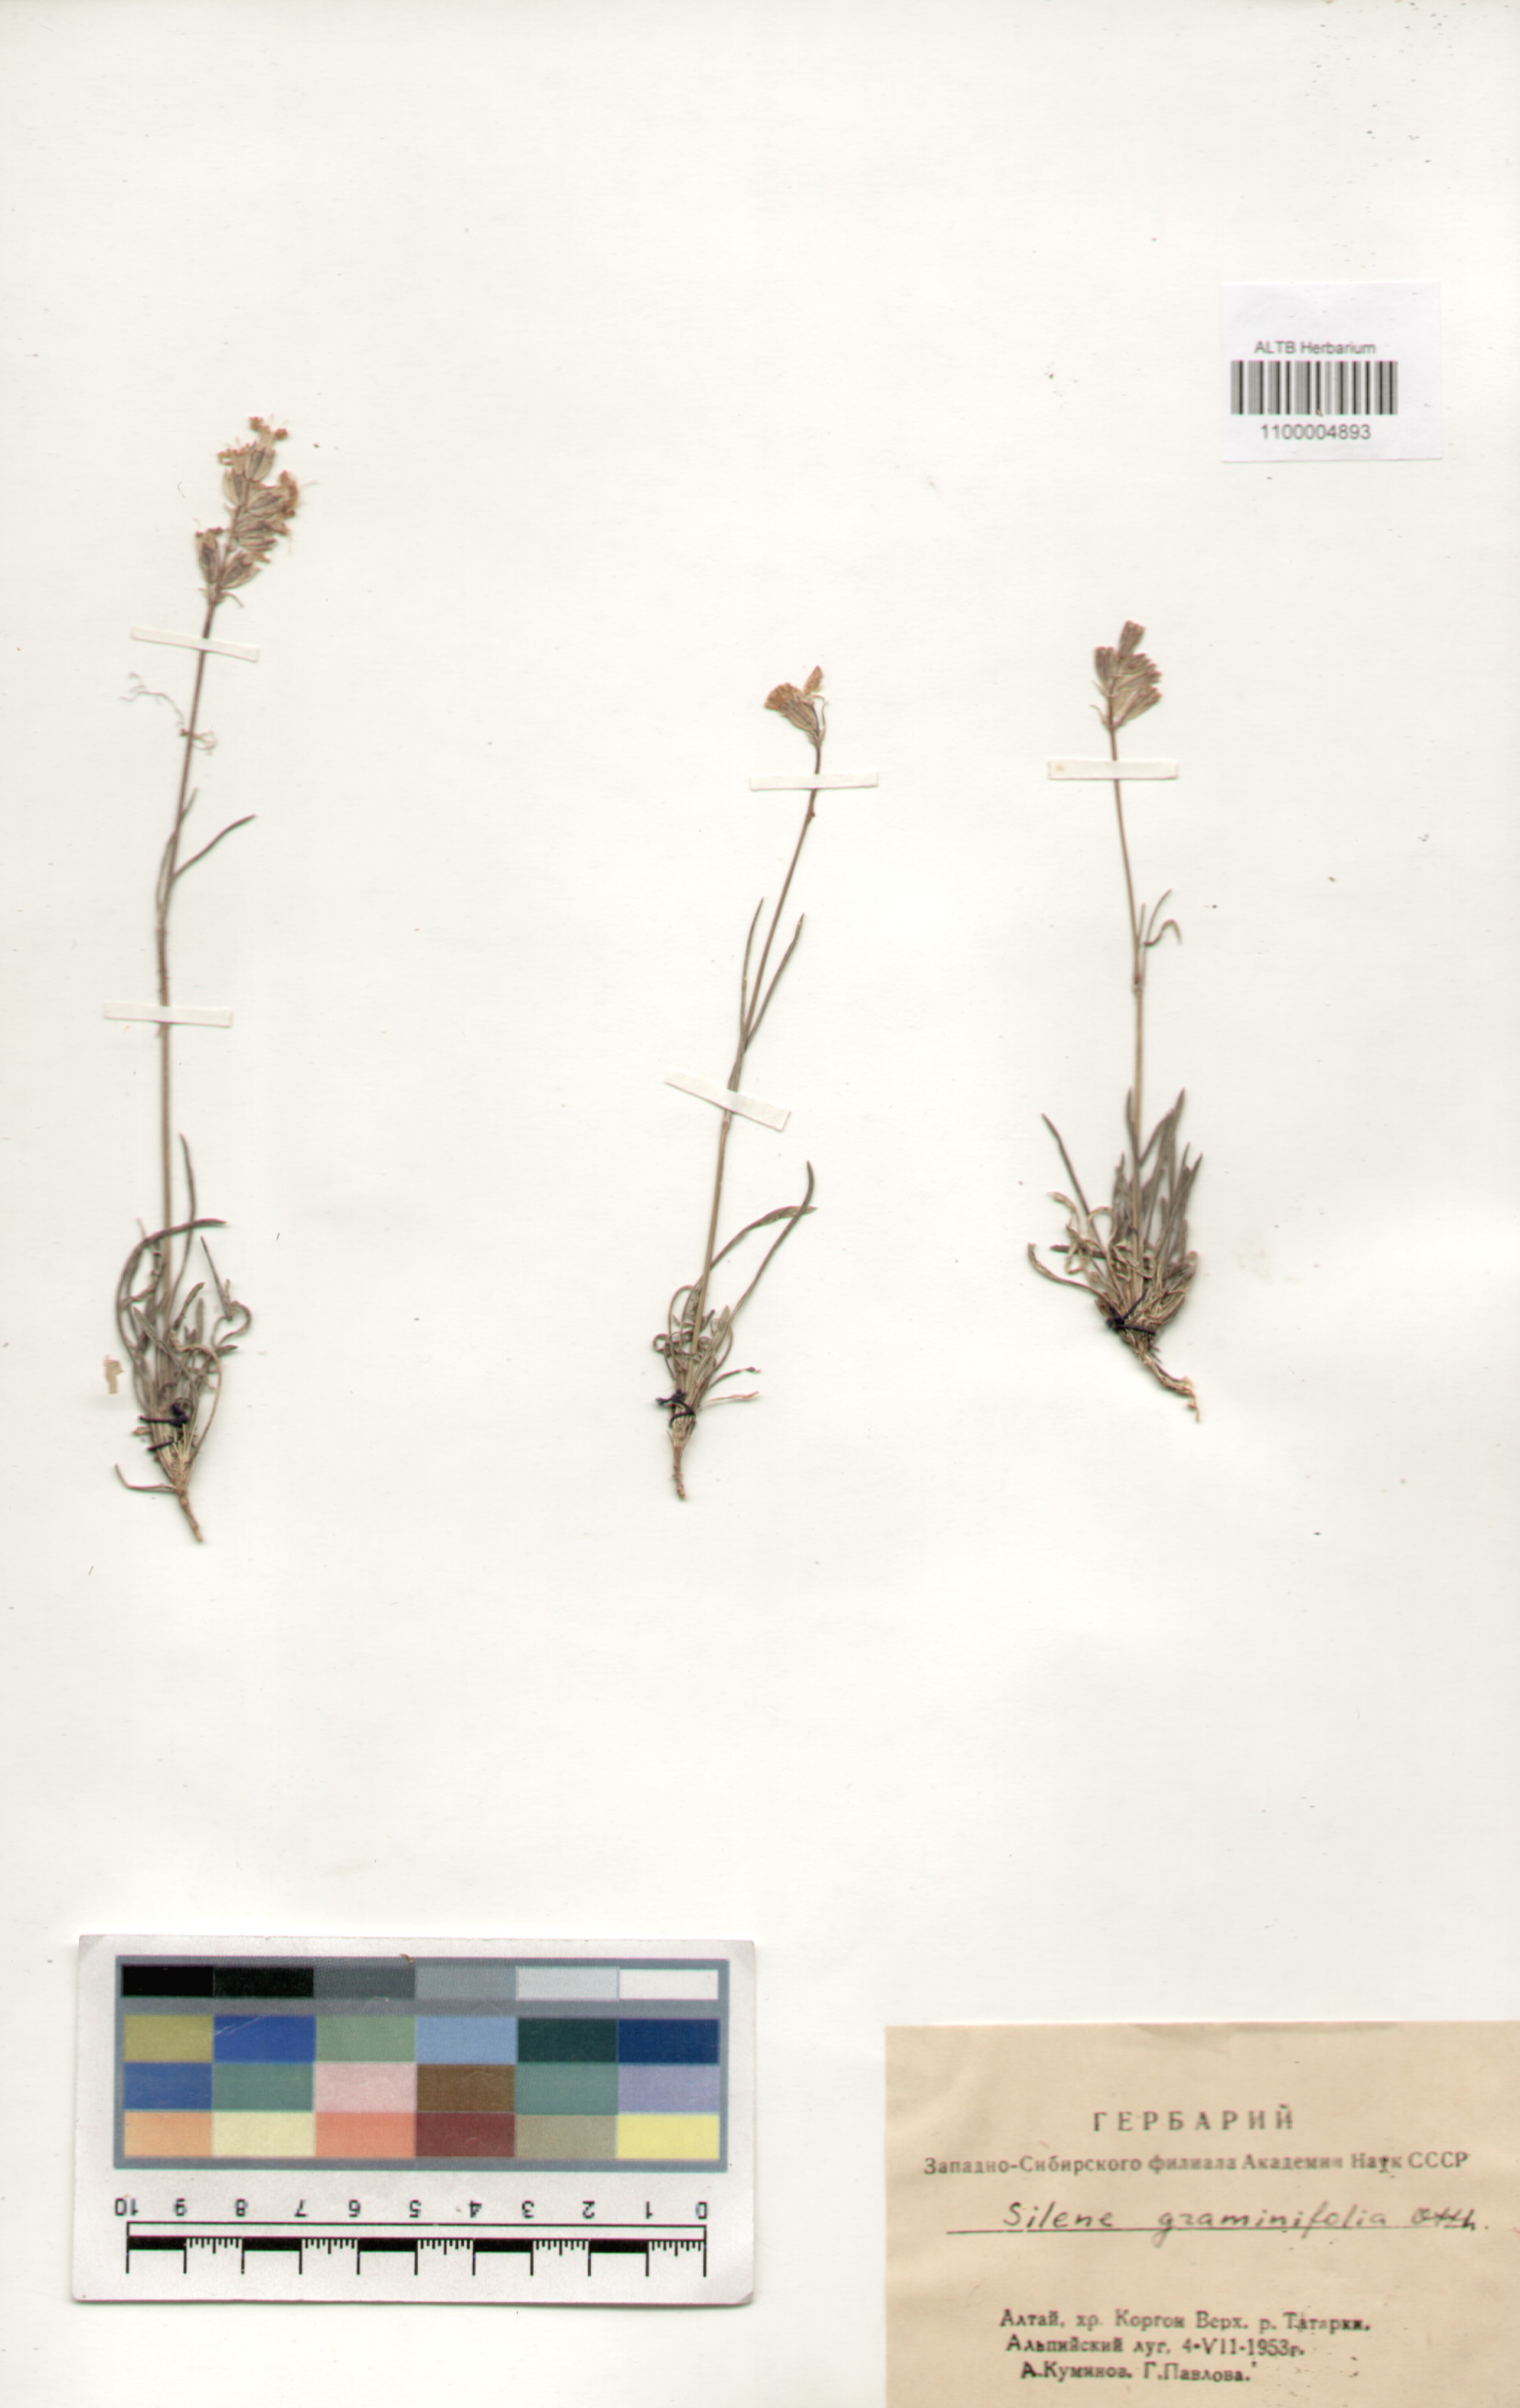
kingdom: Plantae
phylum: Tracheophyta
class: Magnoliopsida
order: Caryophyllales
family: Caryophyllaceae
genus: Silene
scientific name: Silene graminifolia
